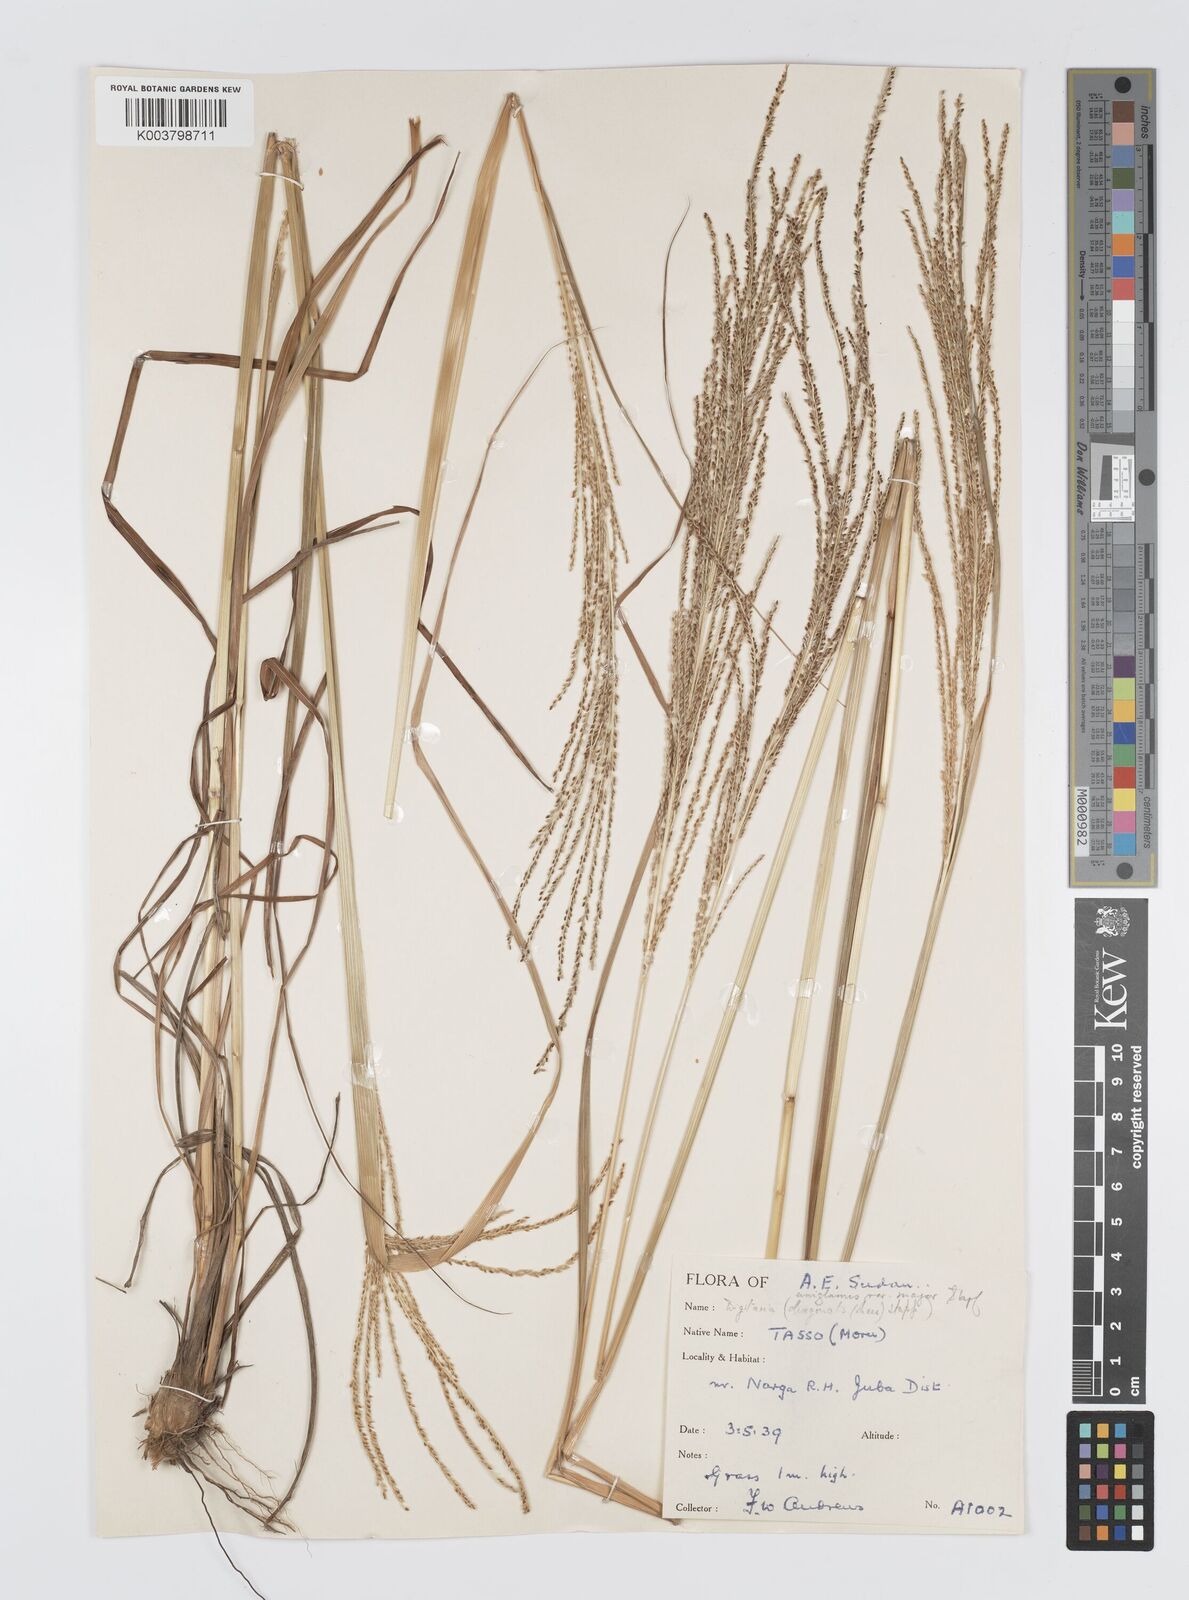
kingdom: Plantae
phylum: Tracheophyta
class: Liliopsida
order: Poales
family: Poaceae
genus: Digitaria
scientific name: Digitaria diagonalis
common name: Brown-seed finger grass
